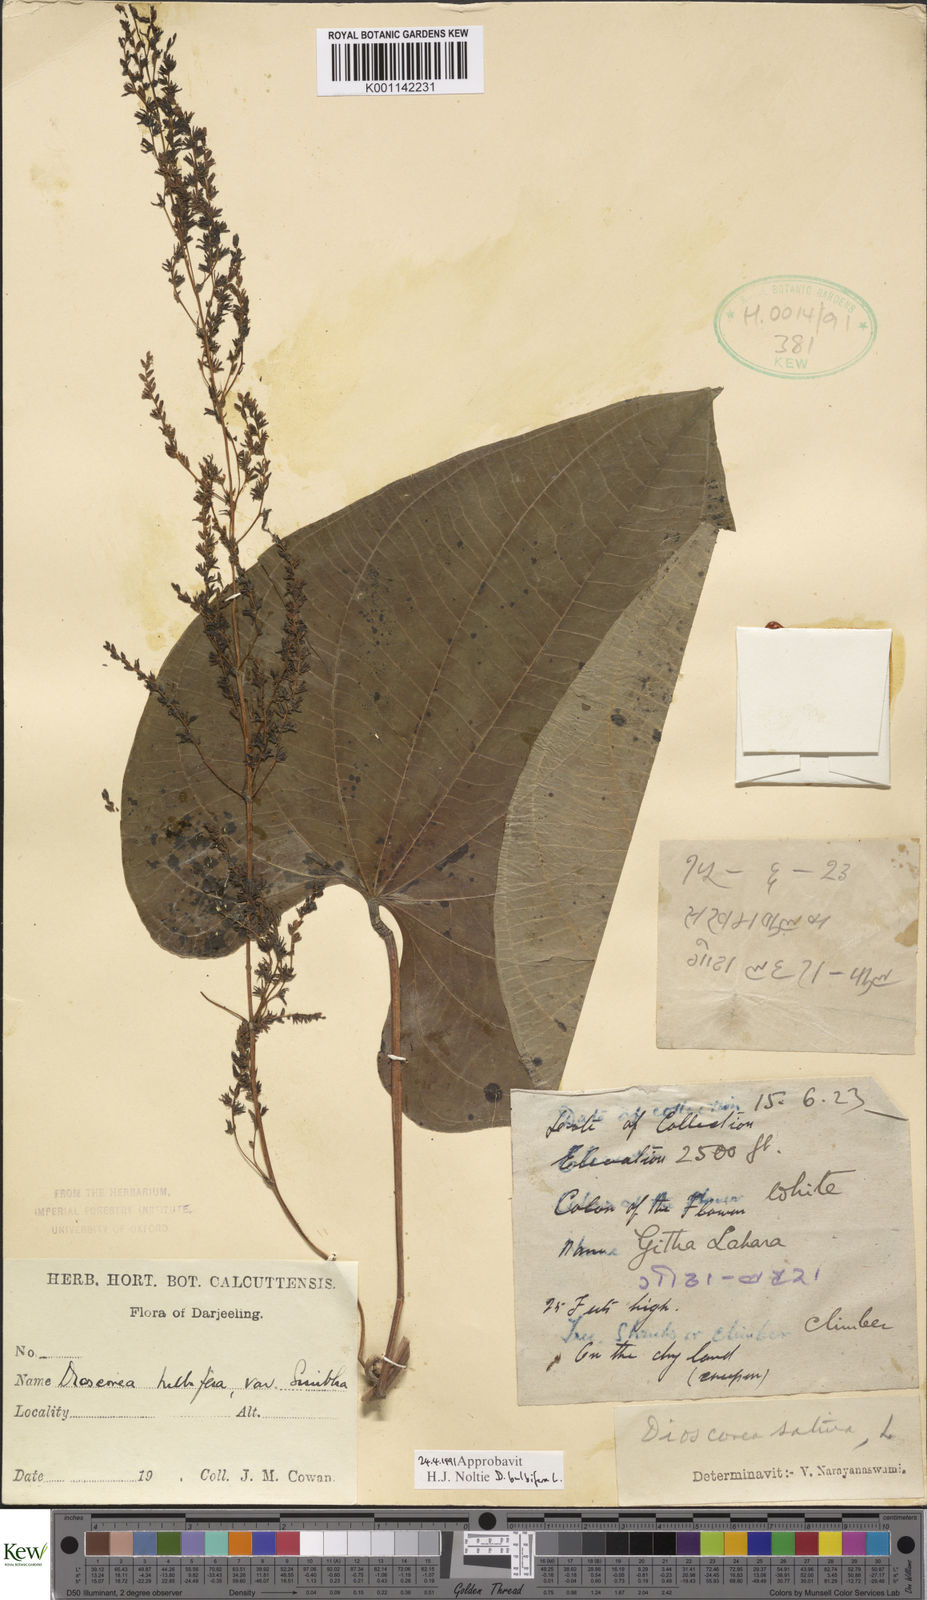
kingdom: Plantae
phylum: Tracheophyta
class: Liliopsida
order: Dioscoreales
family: Dioscoreaceae
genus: Dioscorea
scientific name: Dioscorea bulbifera
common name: Air yam
